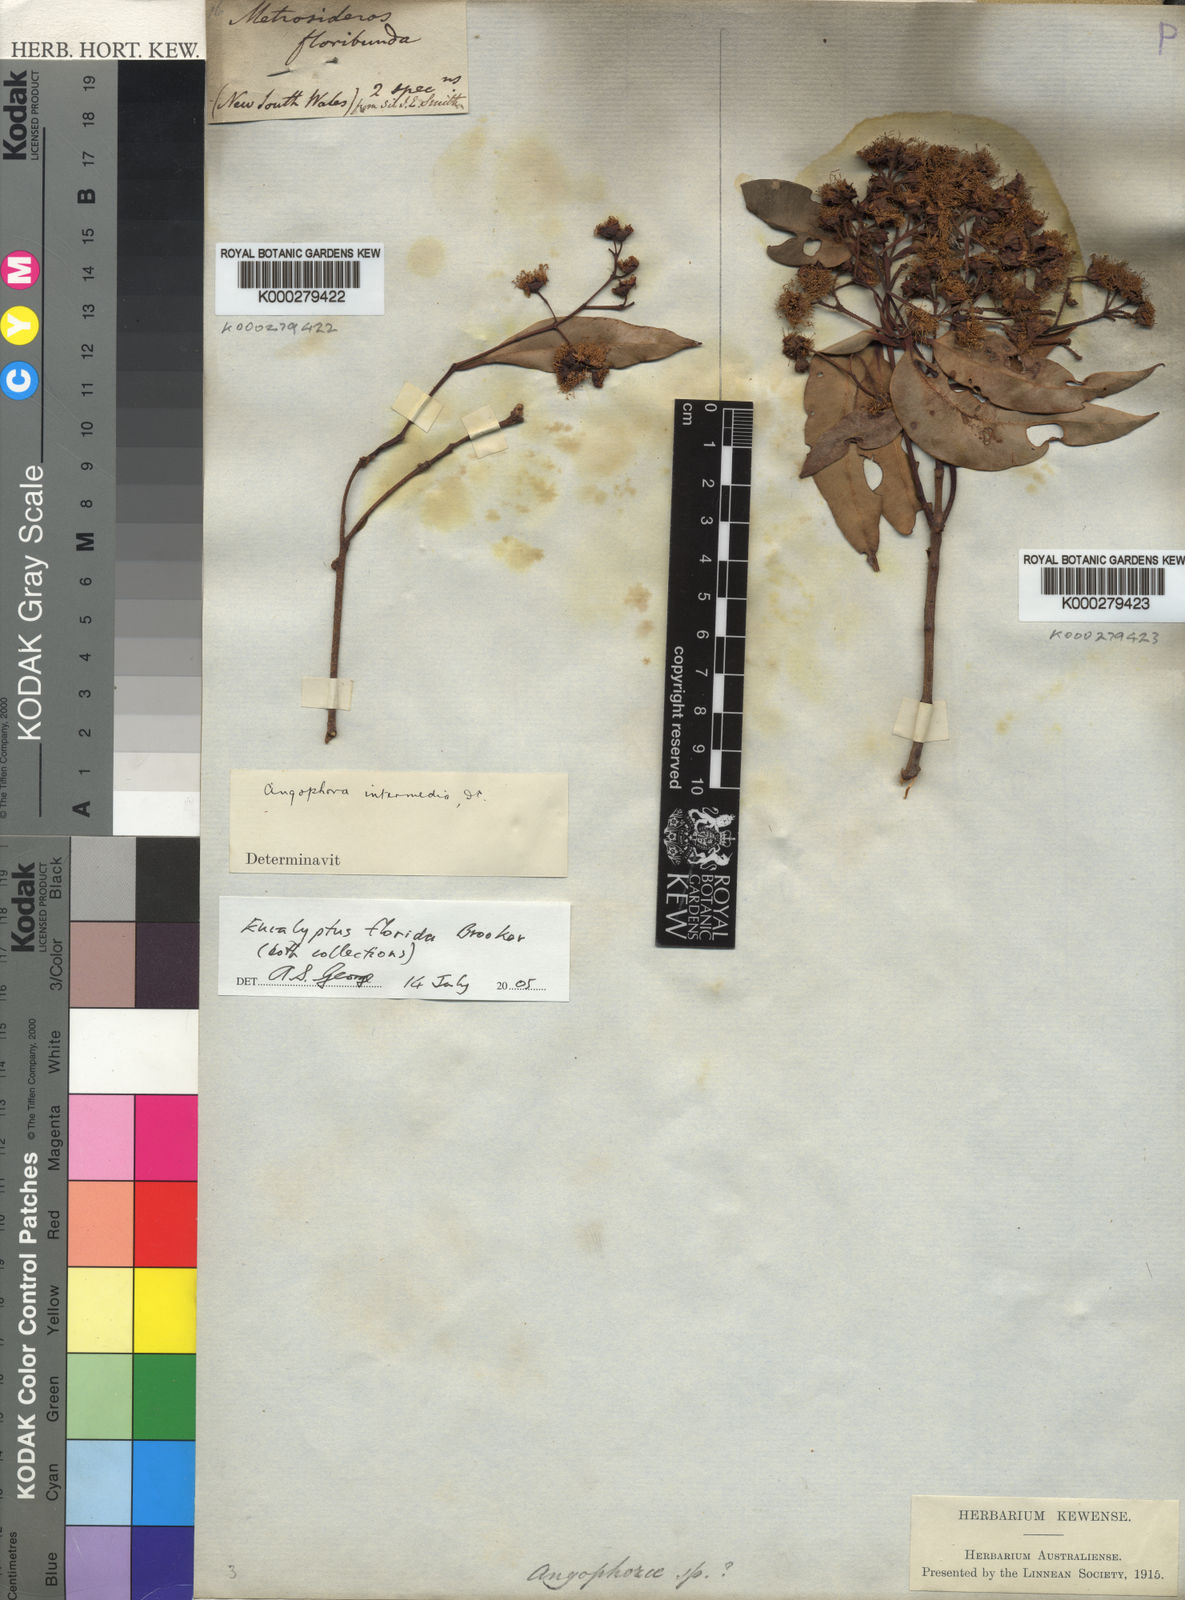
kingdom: Plantae
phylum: Tracheophyta
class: Magnoliopsida
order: Myrtales
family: Myrtaceae
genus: Angophora
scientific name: Angophora floribunda
